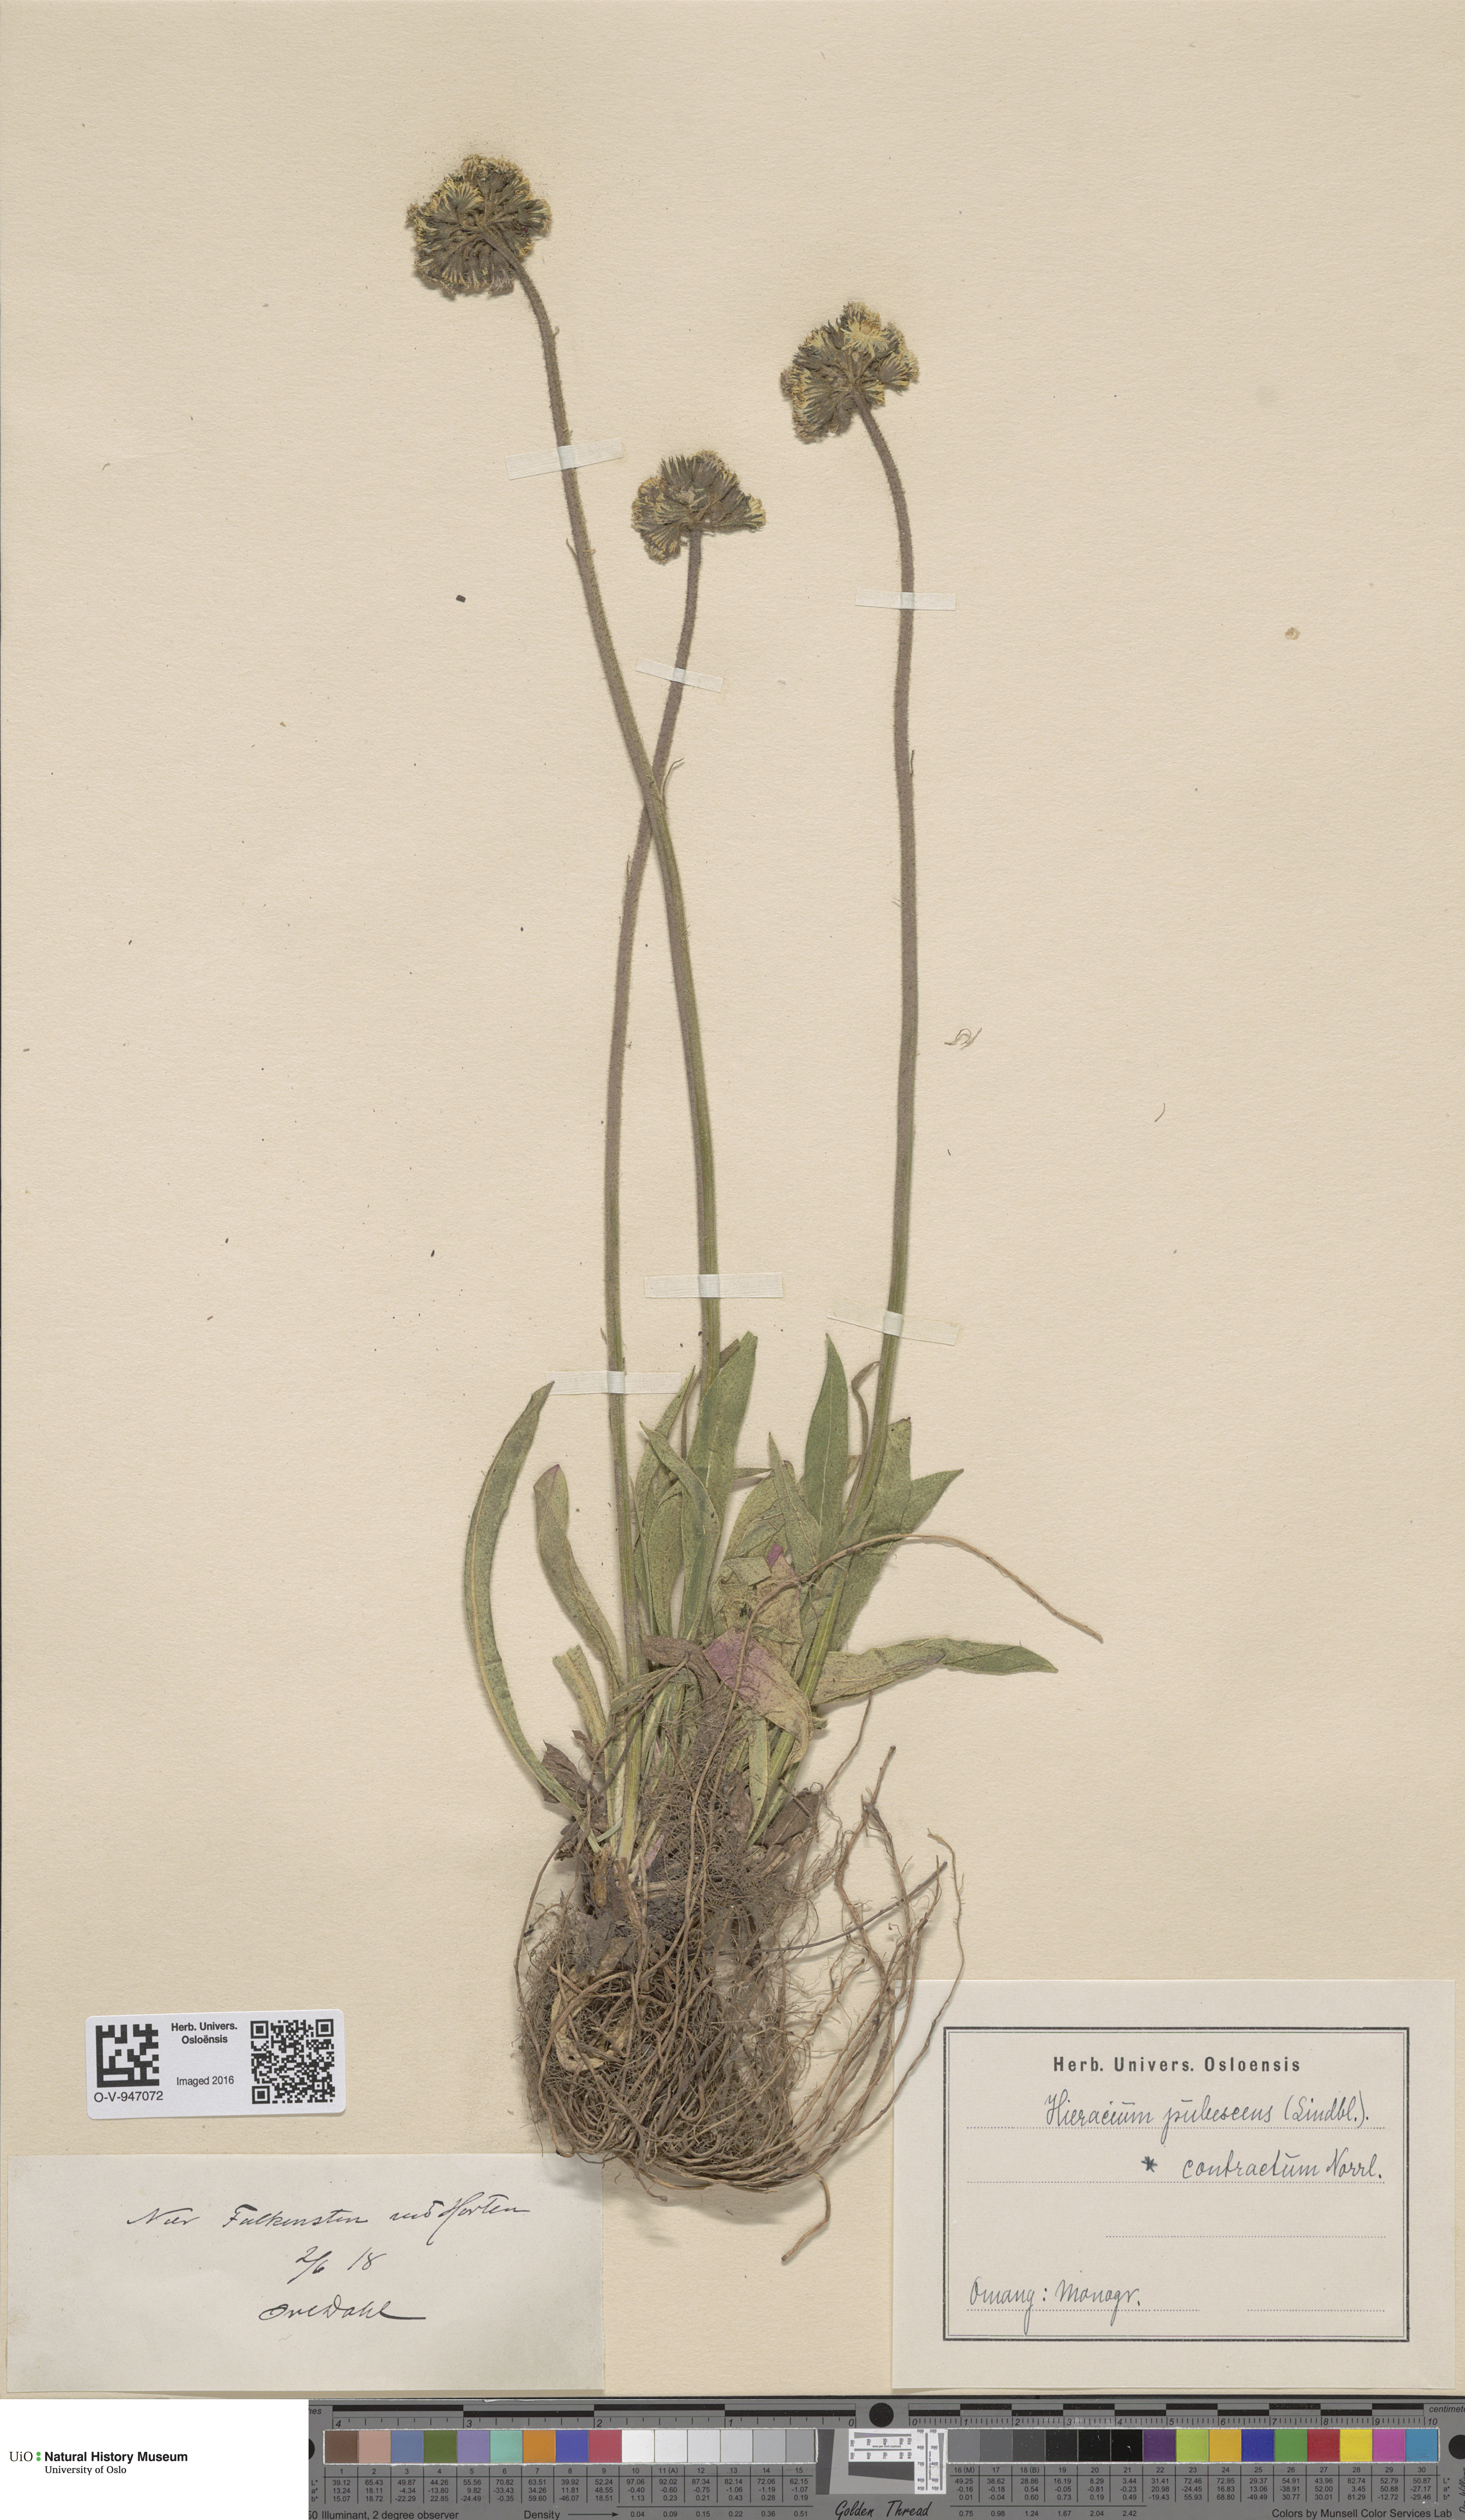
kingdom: Plantae
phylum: Tracheophyta
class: Magnoliopsida
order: Asterales
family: Asteraceae
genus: Pilosella
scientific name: Pilosella cymosa
